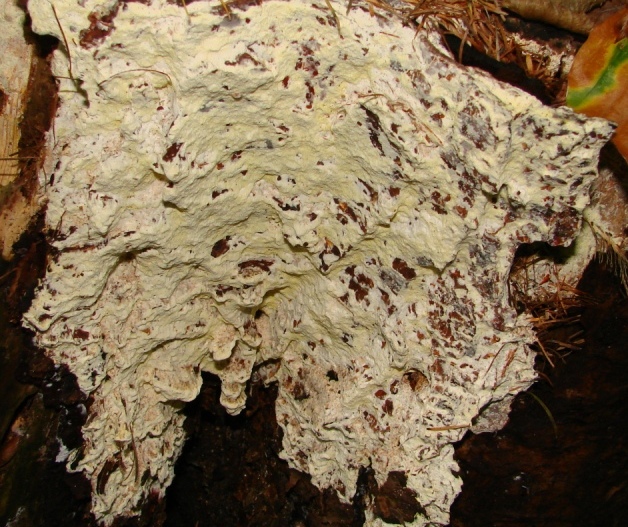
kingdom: Fungi
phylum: Basidiomycota
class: Agaricomycetes
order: Polyporales
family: Fomitopsidaceae
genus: Daedalea
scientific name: Daedalea xantha
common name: gul sejporesvamp
